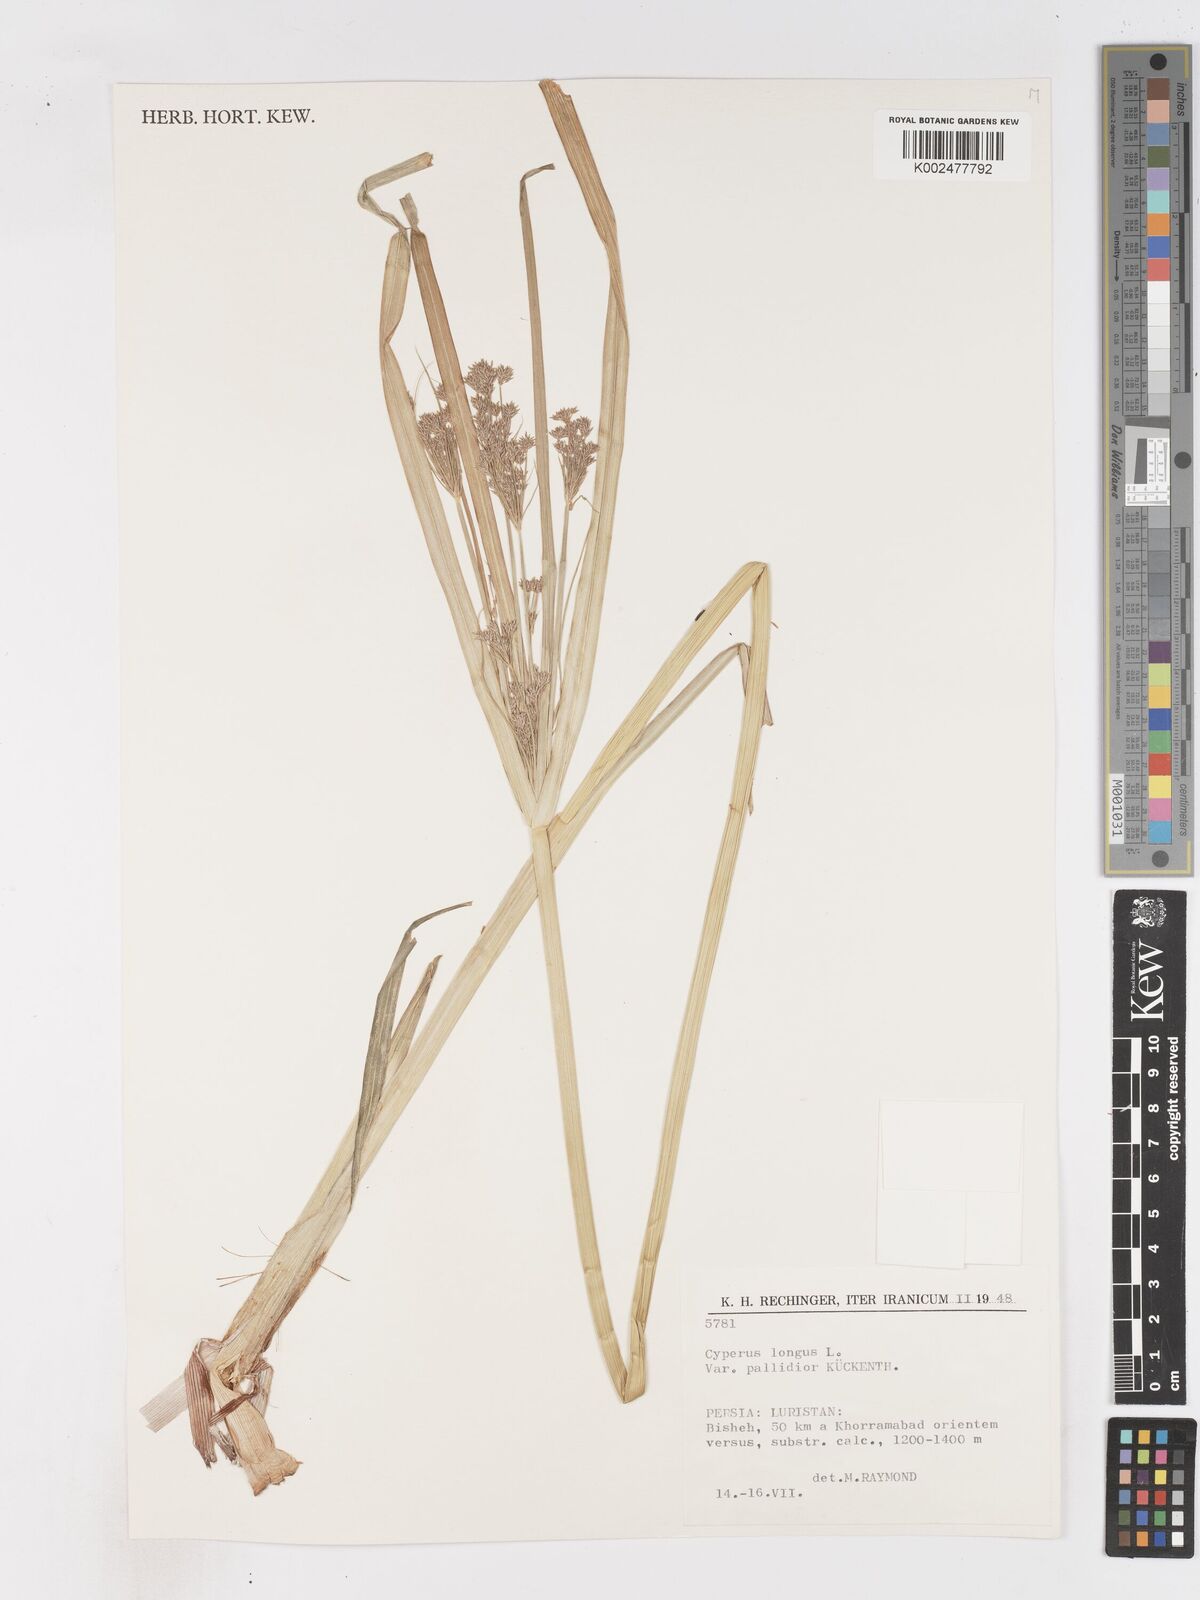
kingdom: Plantae
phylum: Tracheophyta
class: Liliopsida
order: Poales
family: Cyperaceae
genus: Cyperus
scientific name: Cyperus longus
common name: Galingale
